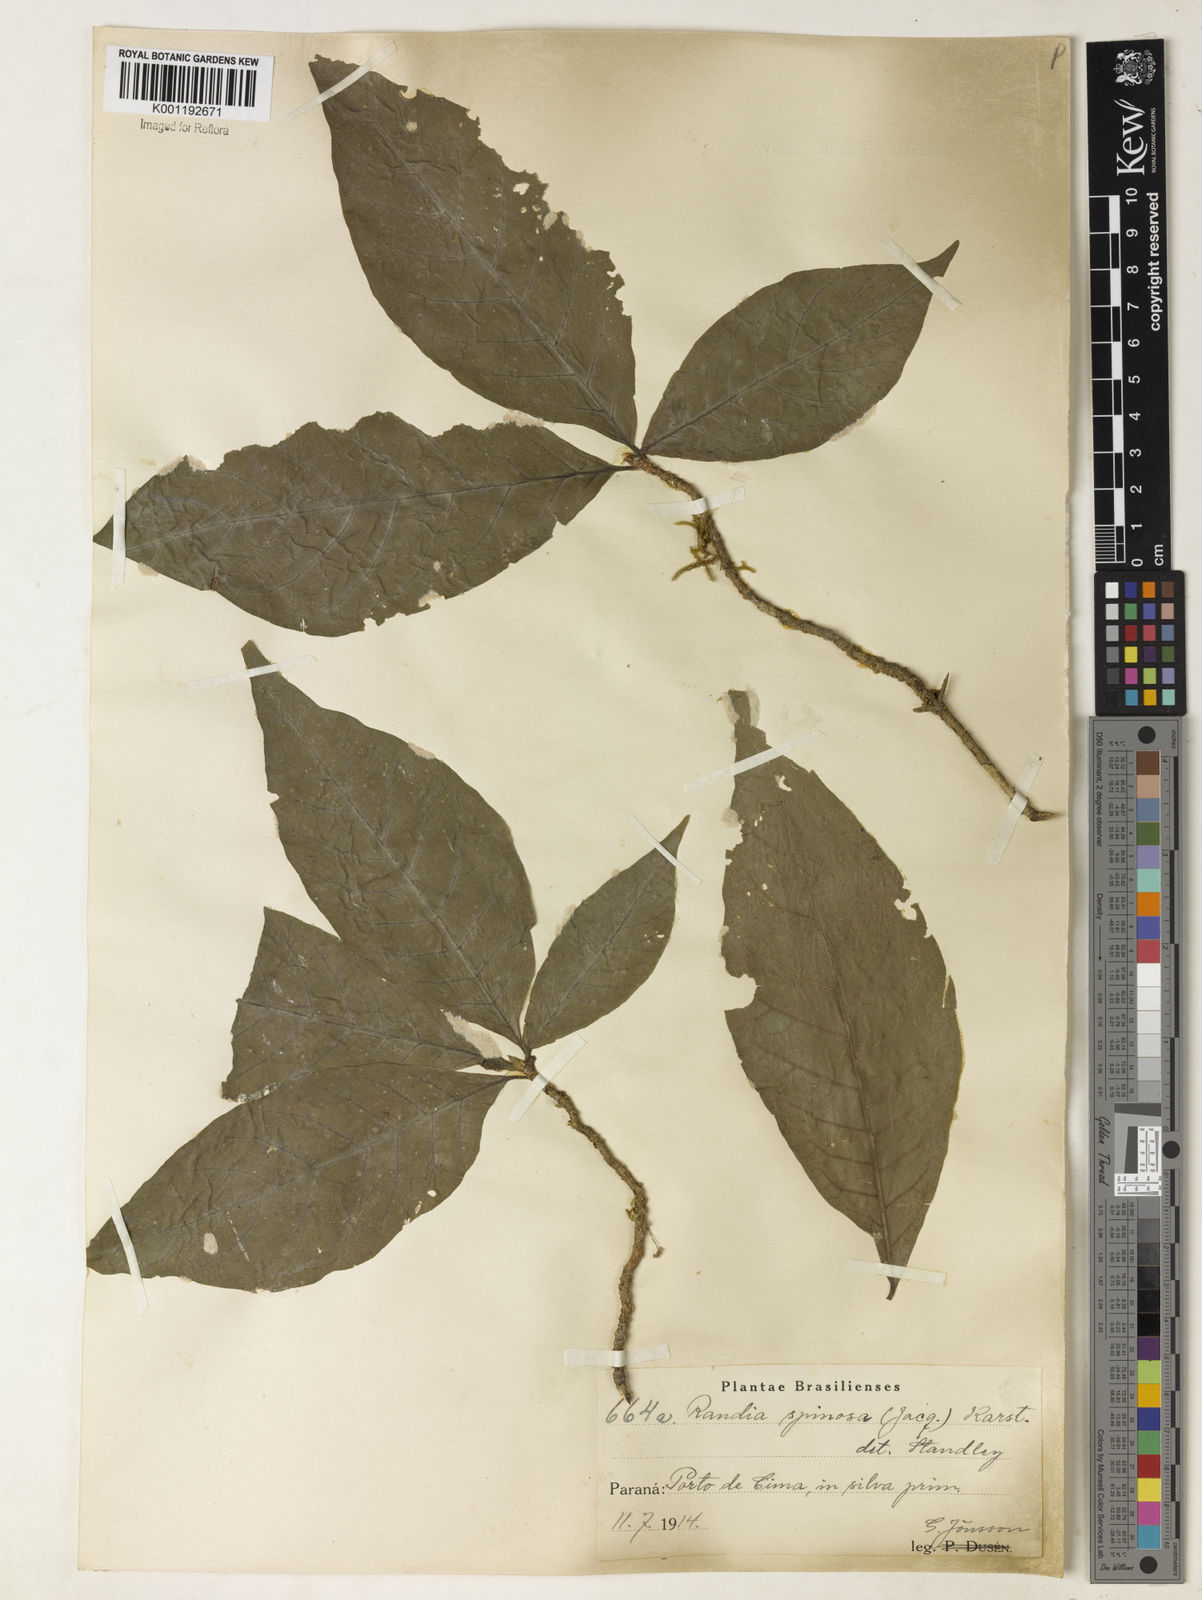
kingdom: Plantae
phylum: Tracheophyta
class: Magnoliopsida
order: Gentianales
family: Rubiaceae
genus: Randia
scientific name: Randia armata
